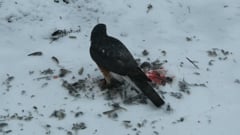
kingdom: Animalia
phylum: Chordata
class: Aves
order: Accipitriformes
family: Accipitridae
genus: Accipiter
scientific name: Accipiter nisus
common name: Eurasian sparrowhawk
